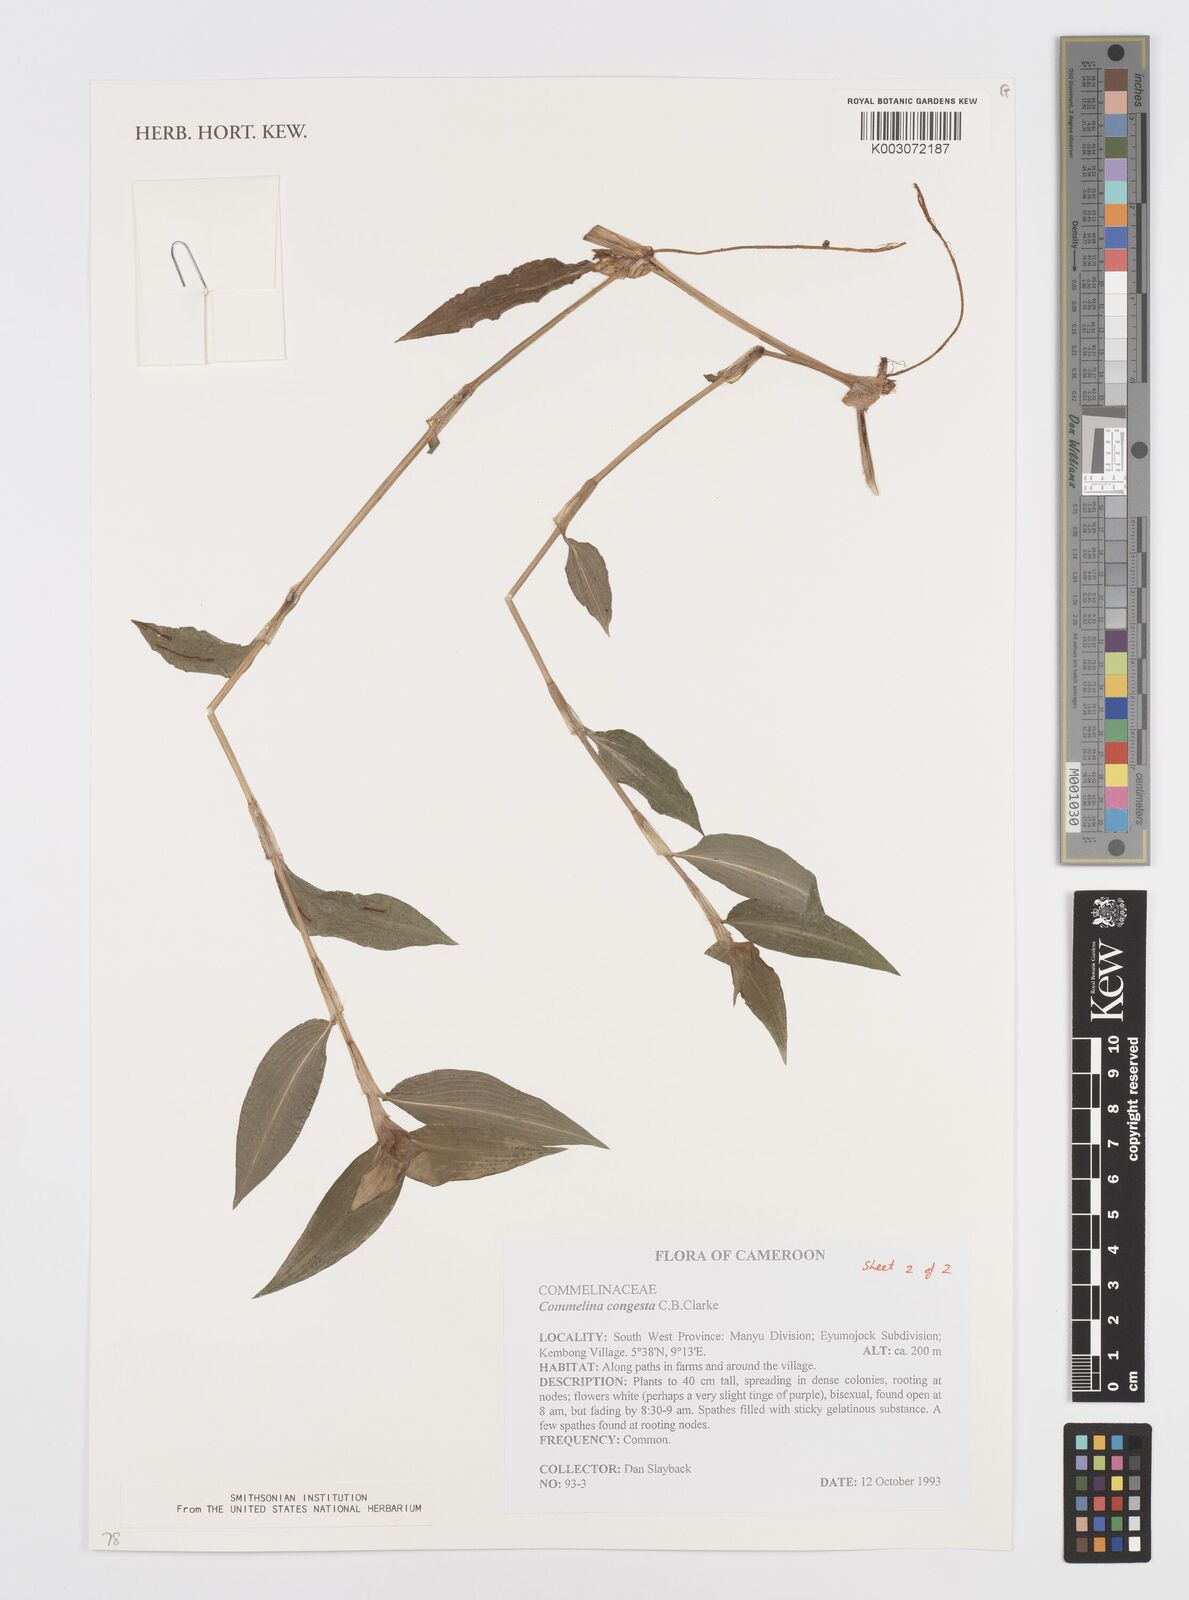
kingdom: Plantae
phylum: Tracheophyta
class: Liliopsida
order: Commelinales
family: Commelinaceae
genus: Commelina
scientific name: Commelina congesta
